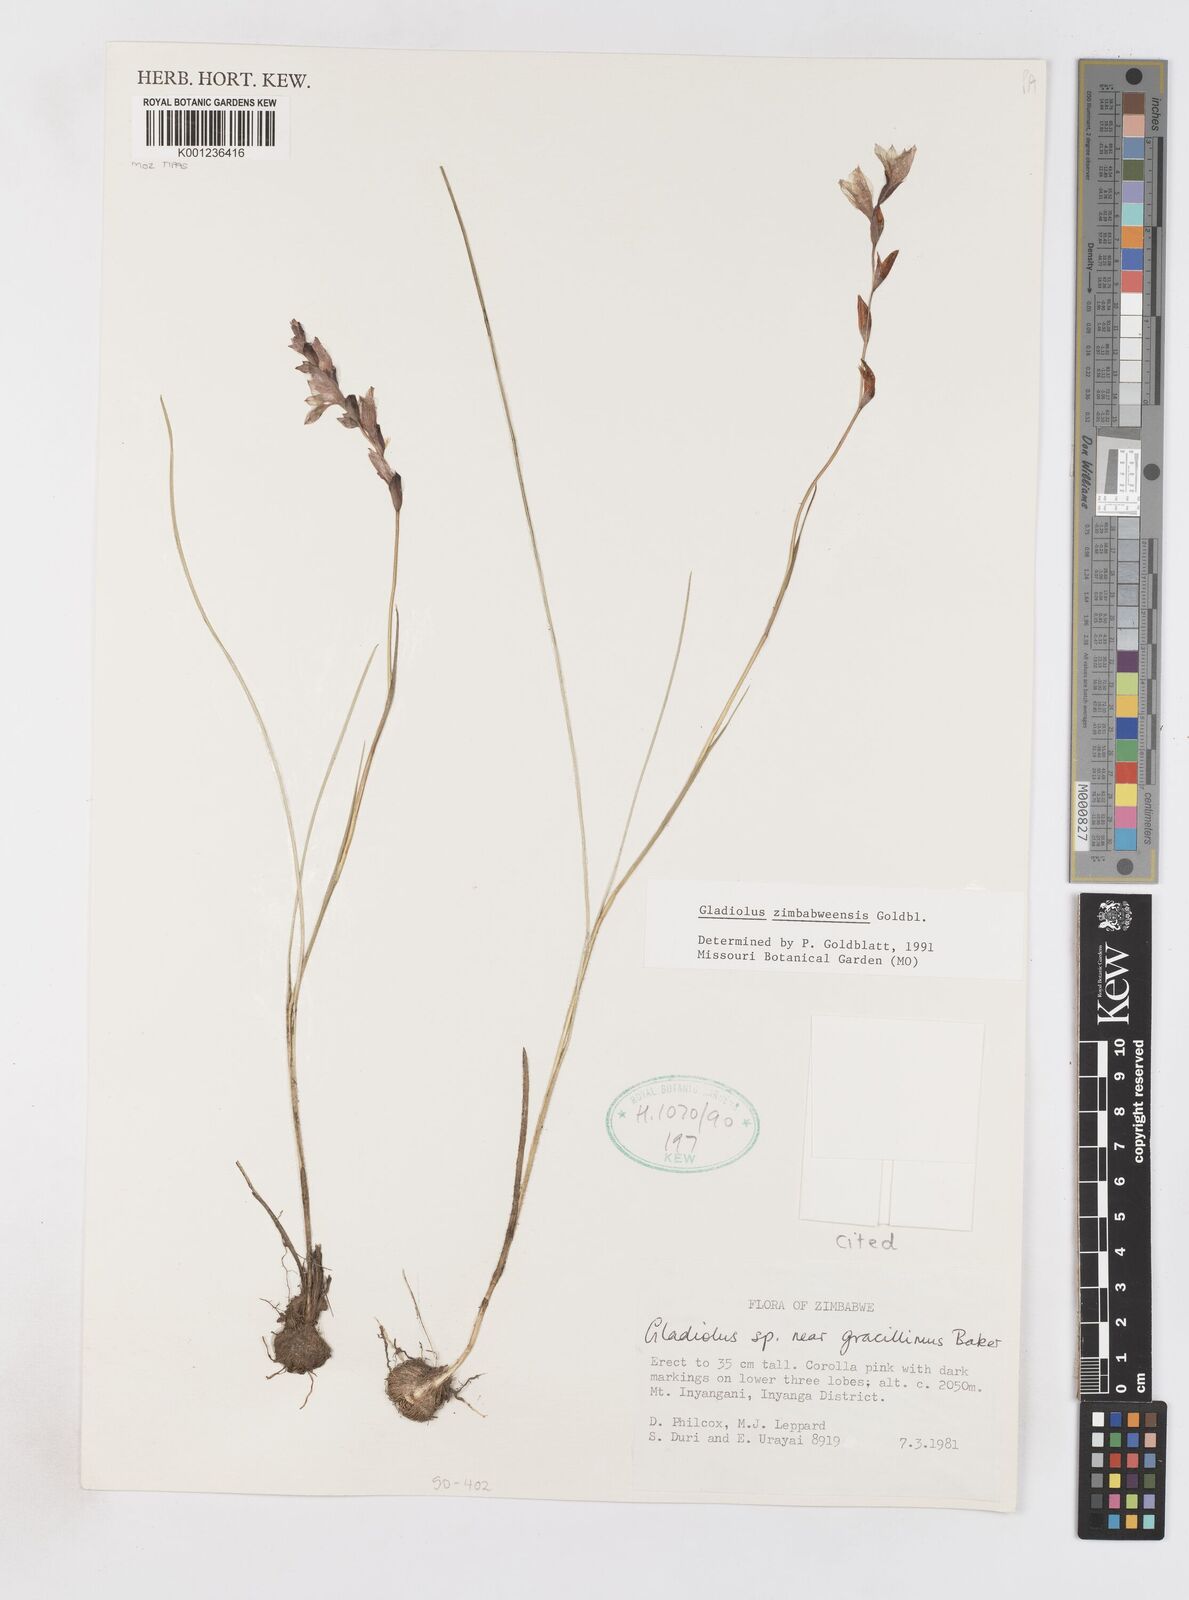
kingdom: Plantae
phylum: Tracheophyta
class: Liliopsida
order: Asparagales
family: Iridaceae
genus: Gladiolus
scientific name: Gladiolus zimbabweensis
